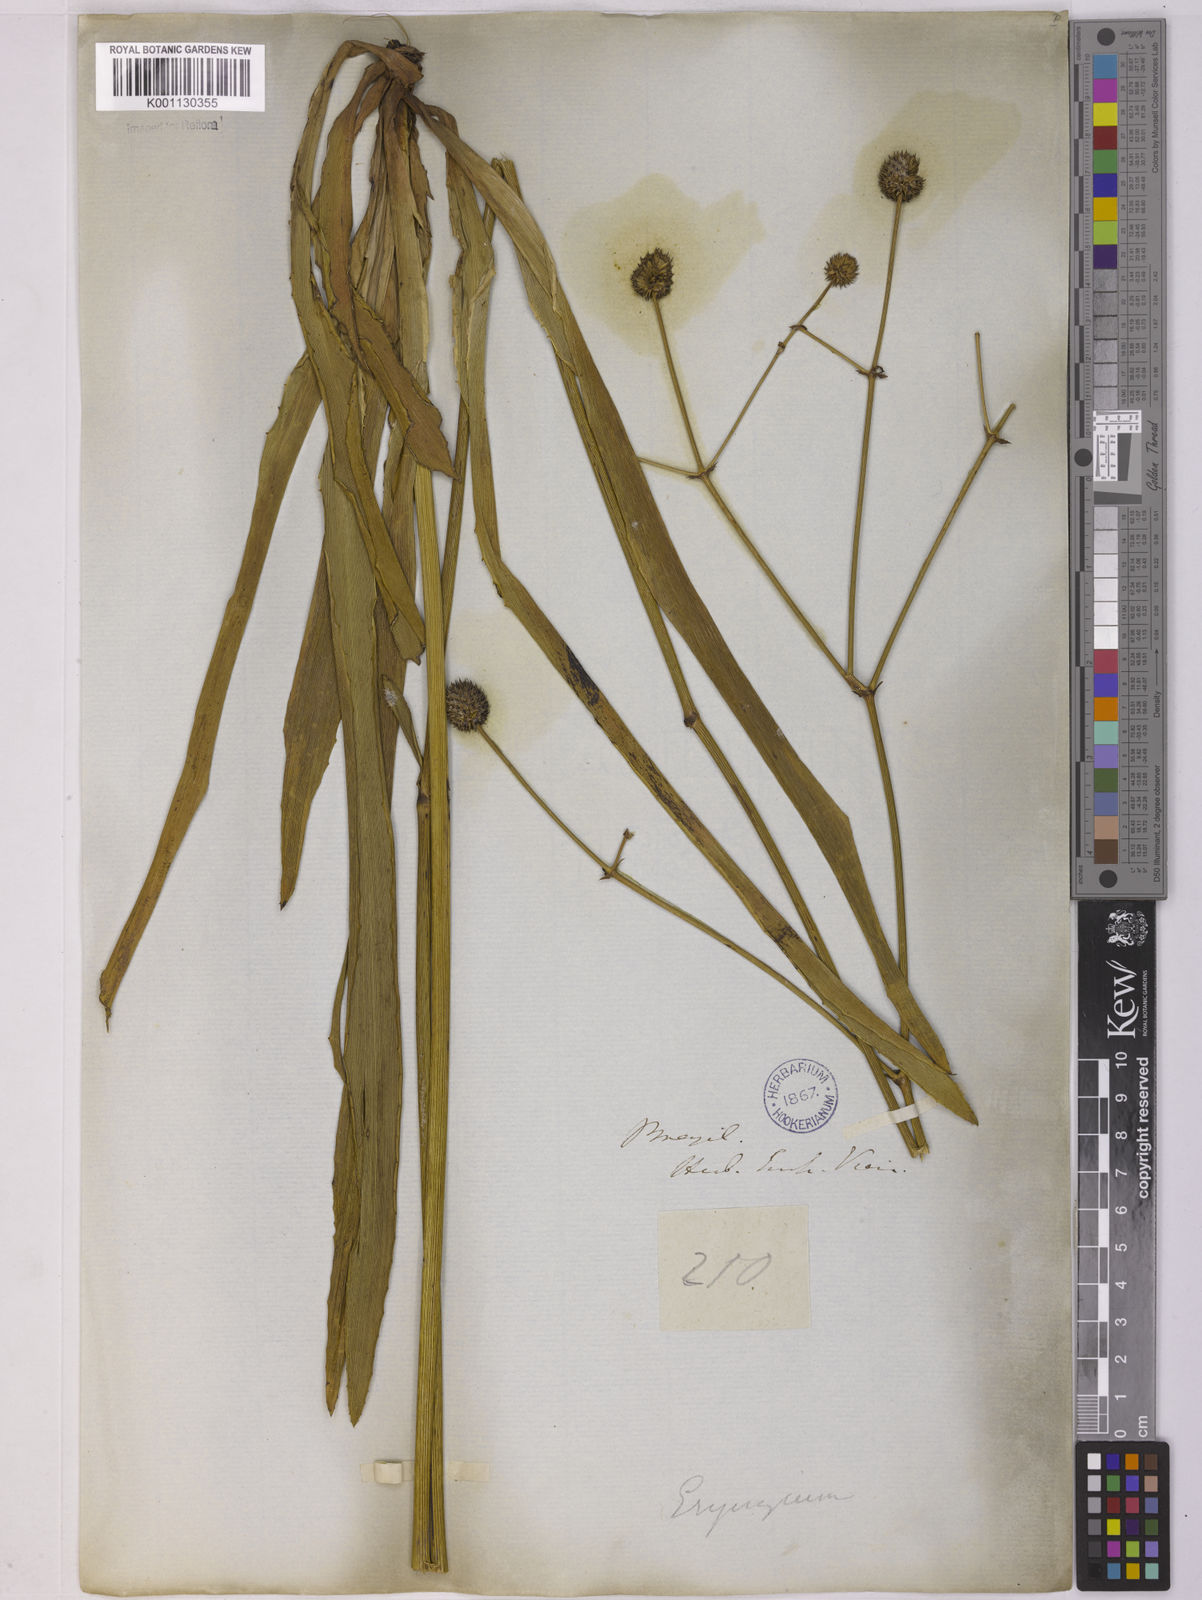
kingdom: Plantae
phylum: Tracheophyta
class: Magnoliopsida
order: Apiales
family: Apiaceae
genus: Eryngium
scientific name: Eryngium sanguisorba
